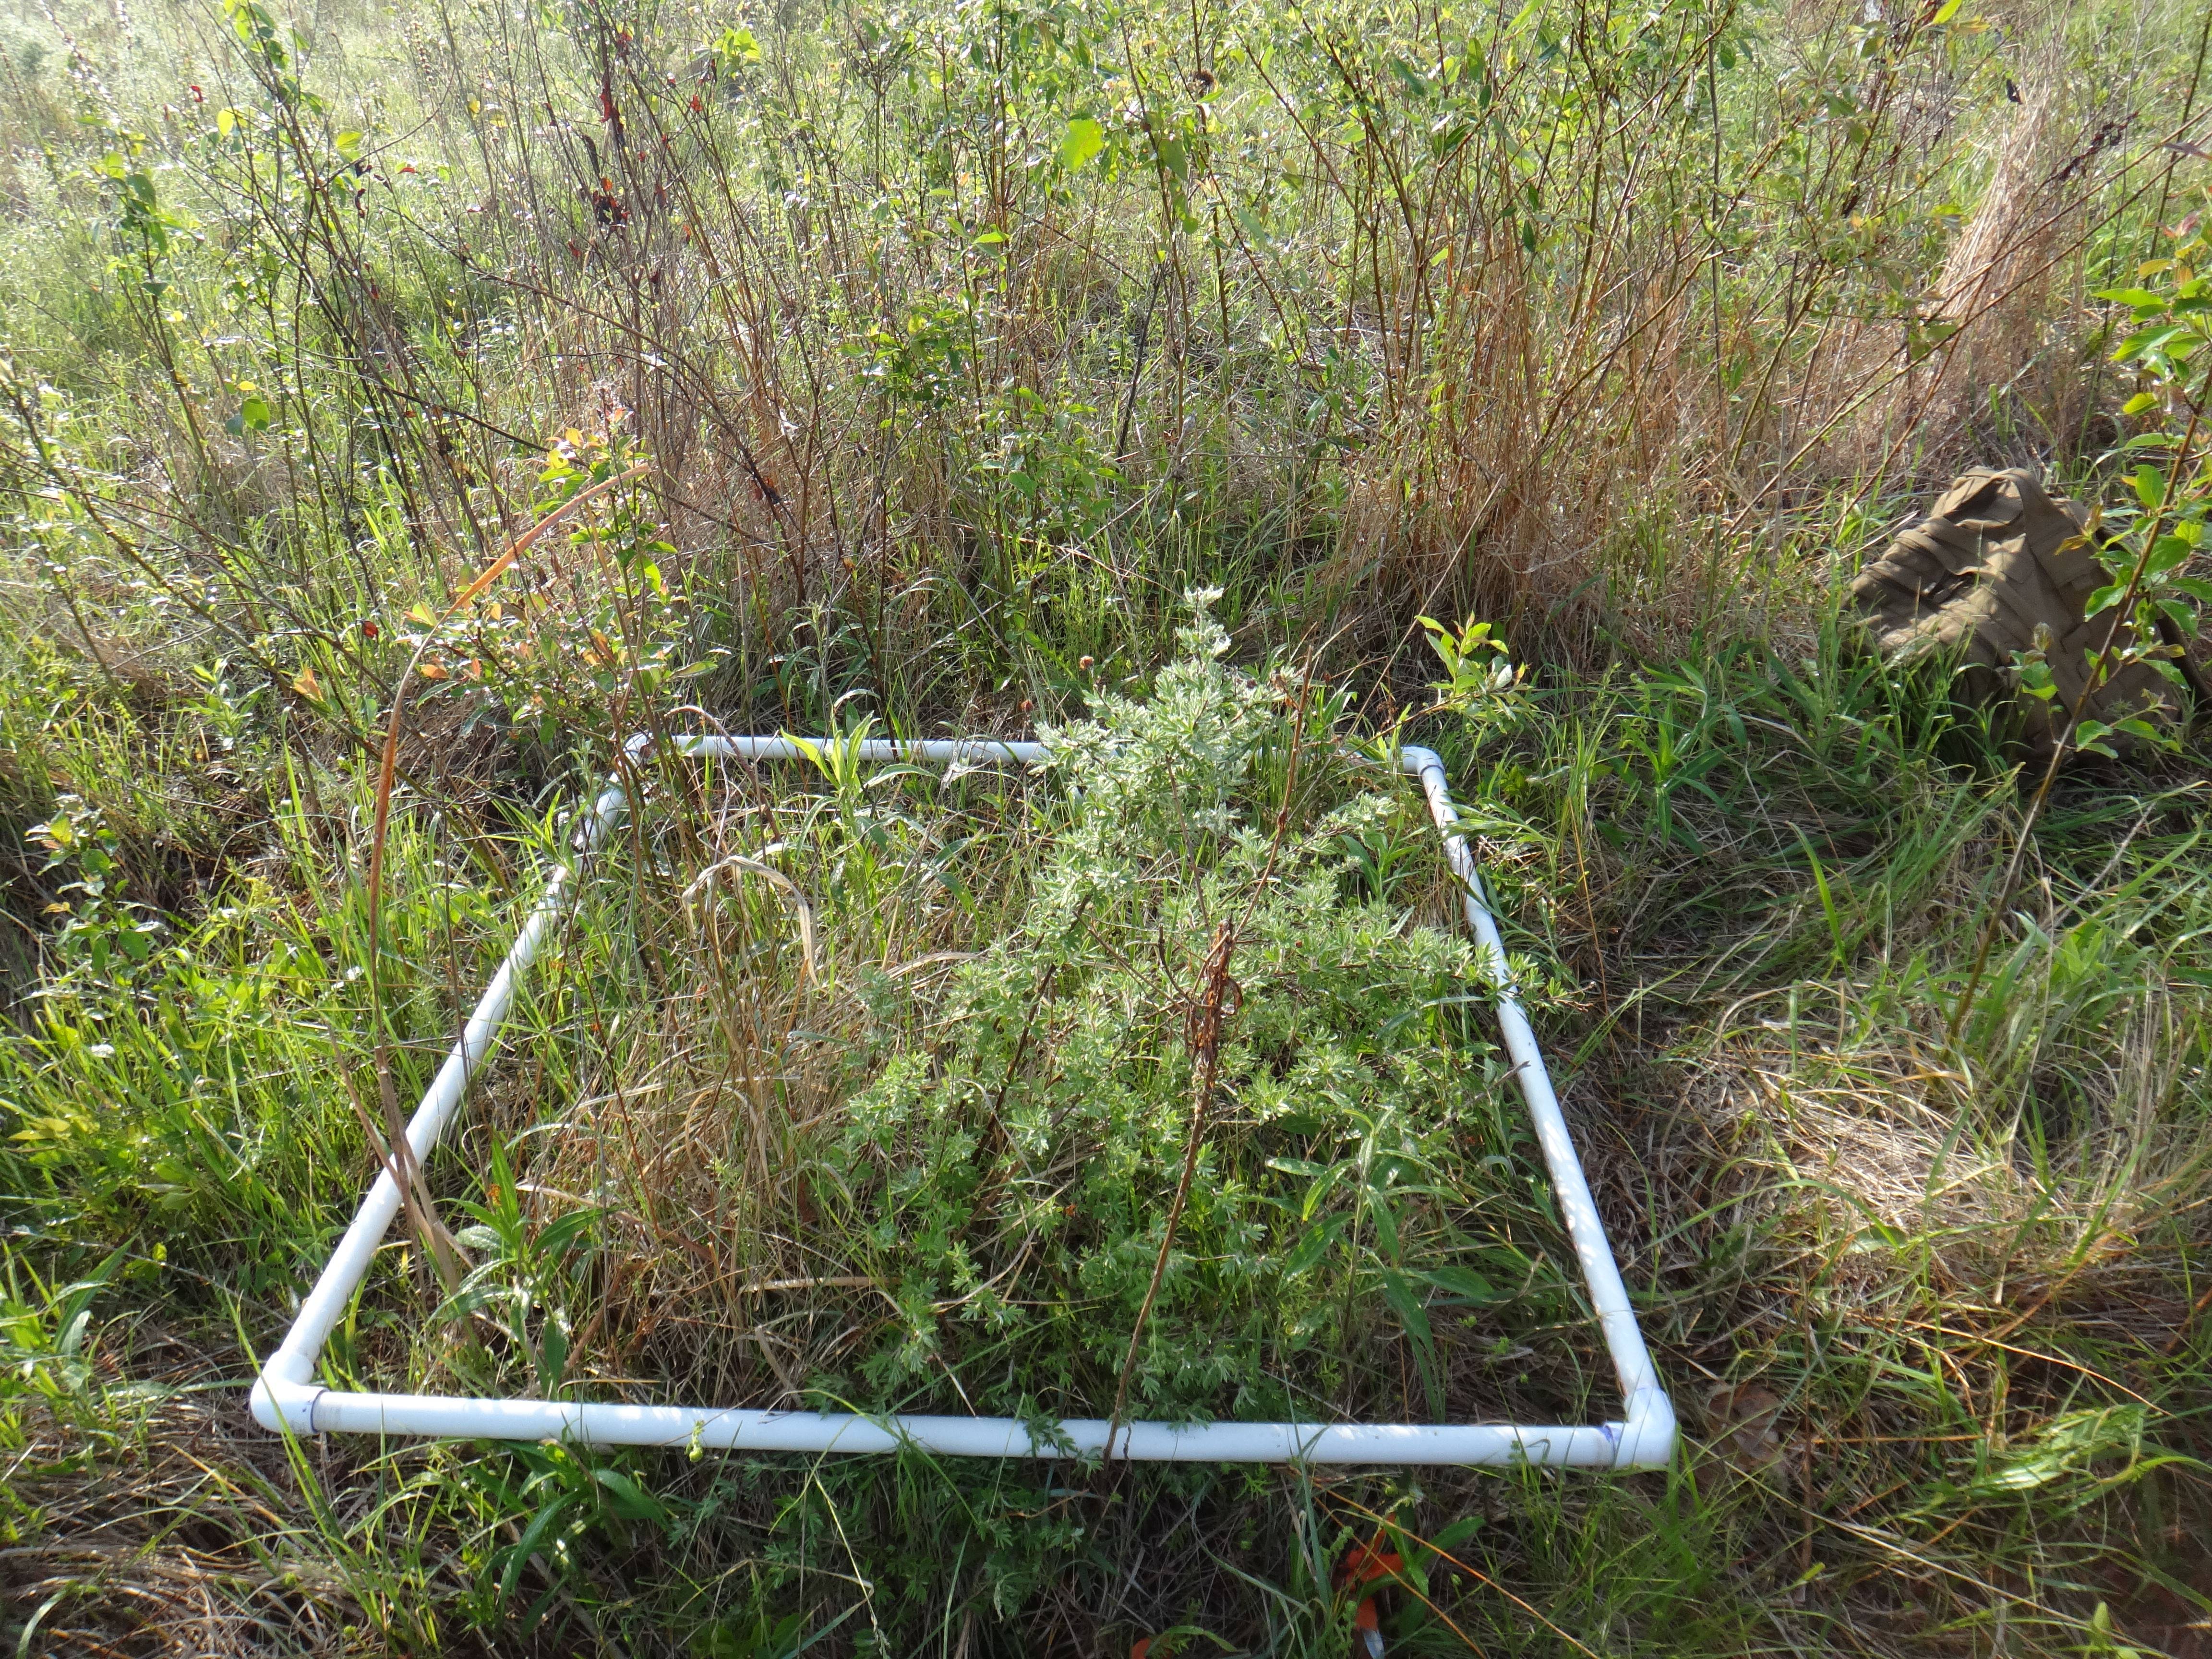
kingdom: Plantae
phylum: Tracheophyta
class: Polypodiopsida
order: Polypodiales
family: Thelypteridaceae
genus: Thelypteris
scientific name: Thelypteris palustris
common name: Marsh fern
